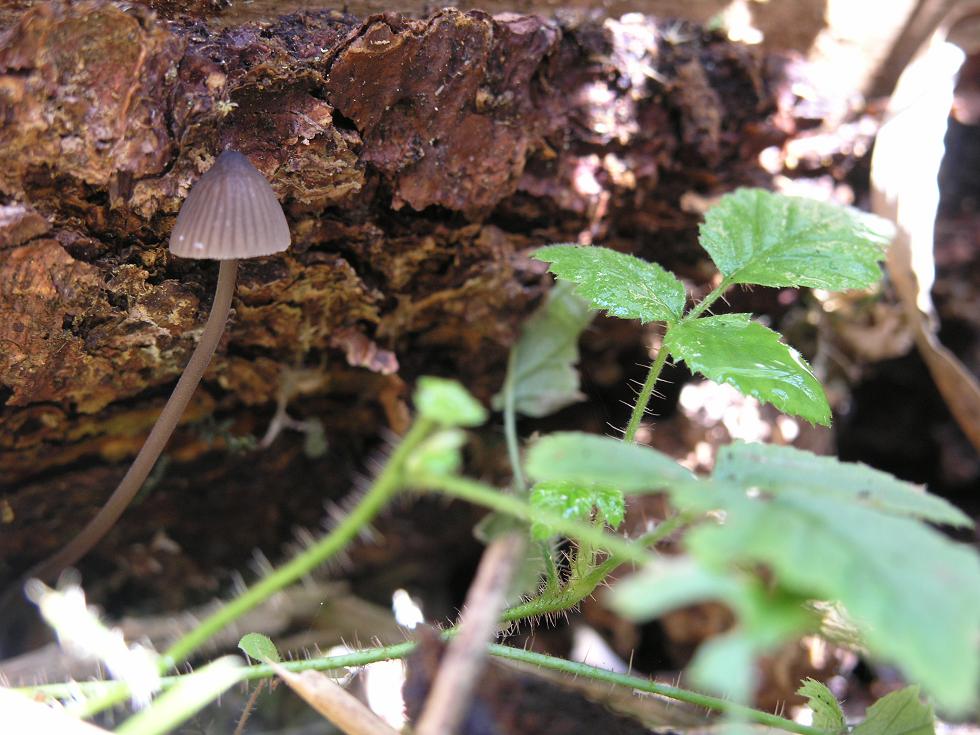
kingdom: Fungi
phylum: Basidiomycota
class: Agaricomycetes
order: Agaricales
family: Mycenaceae
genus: Mycena
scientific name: Mycena galopus
